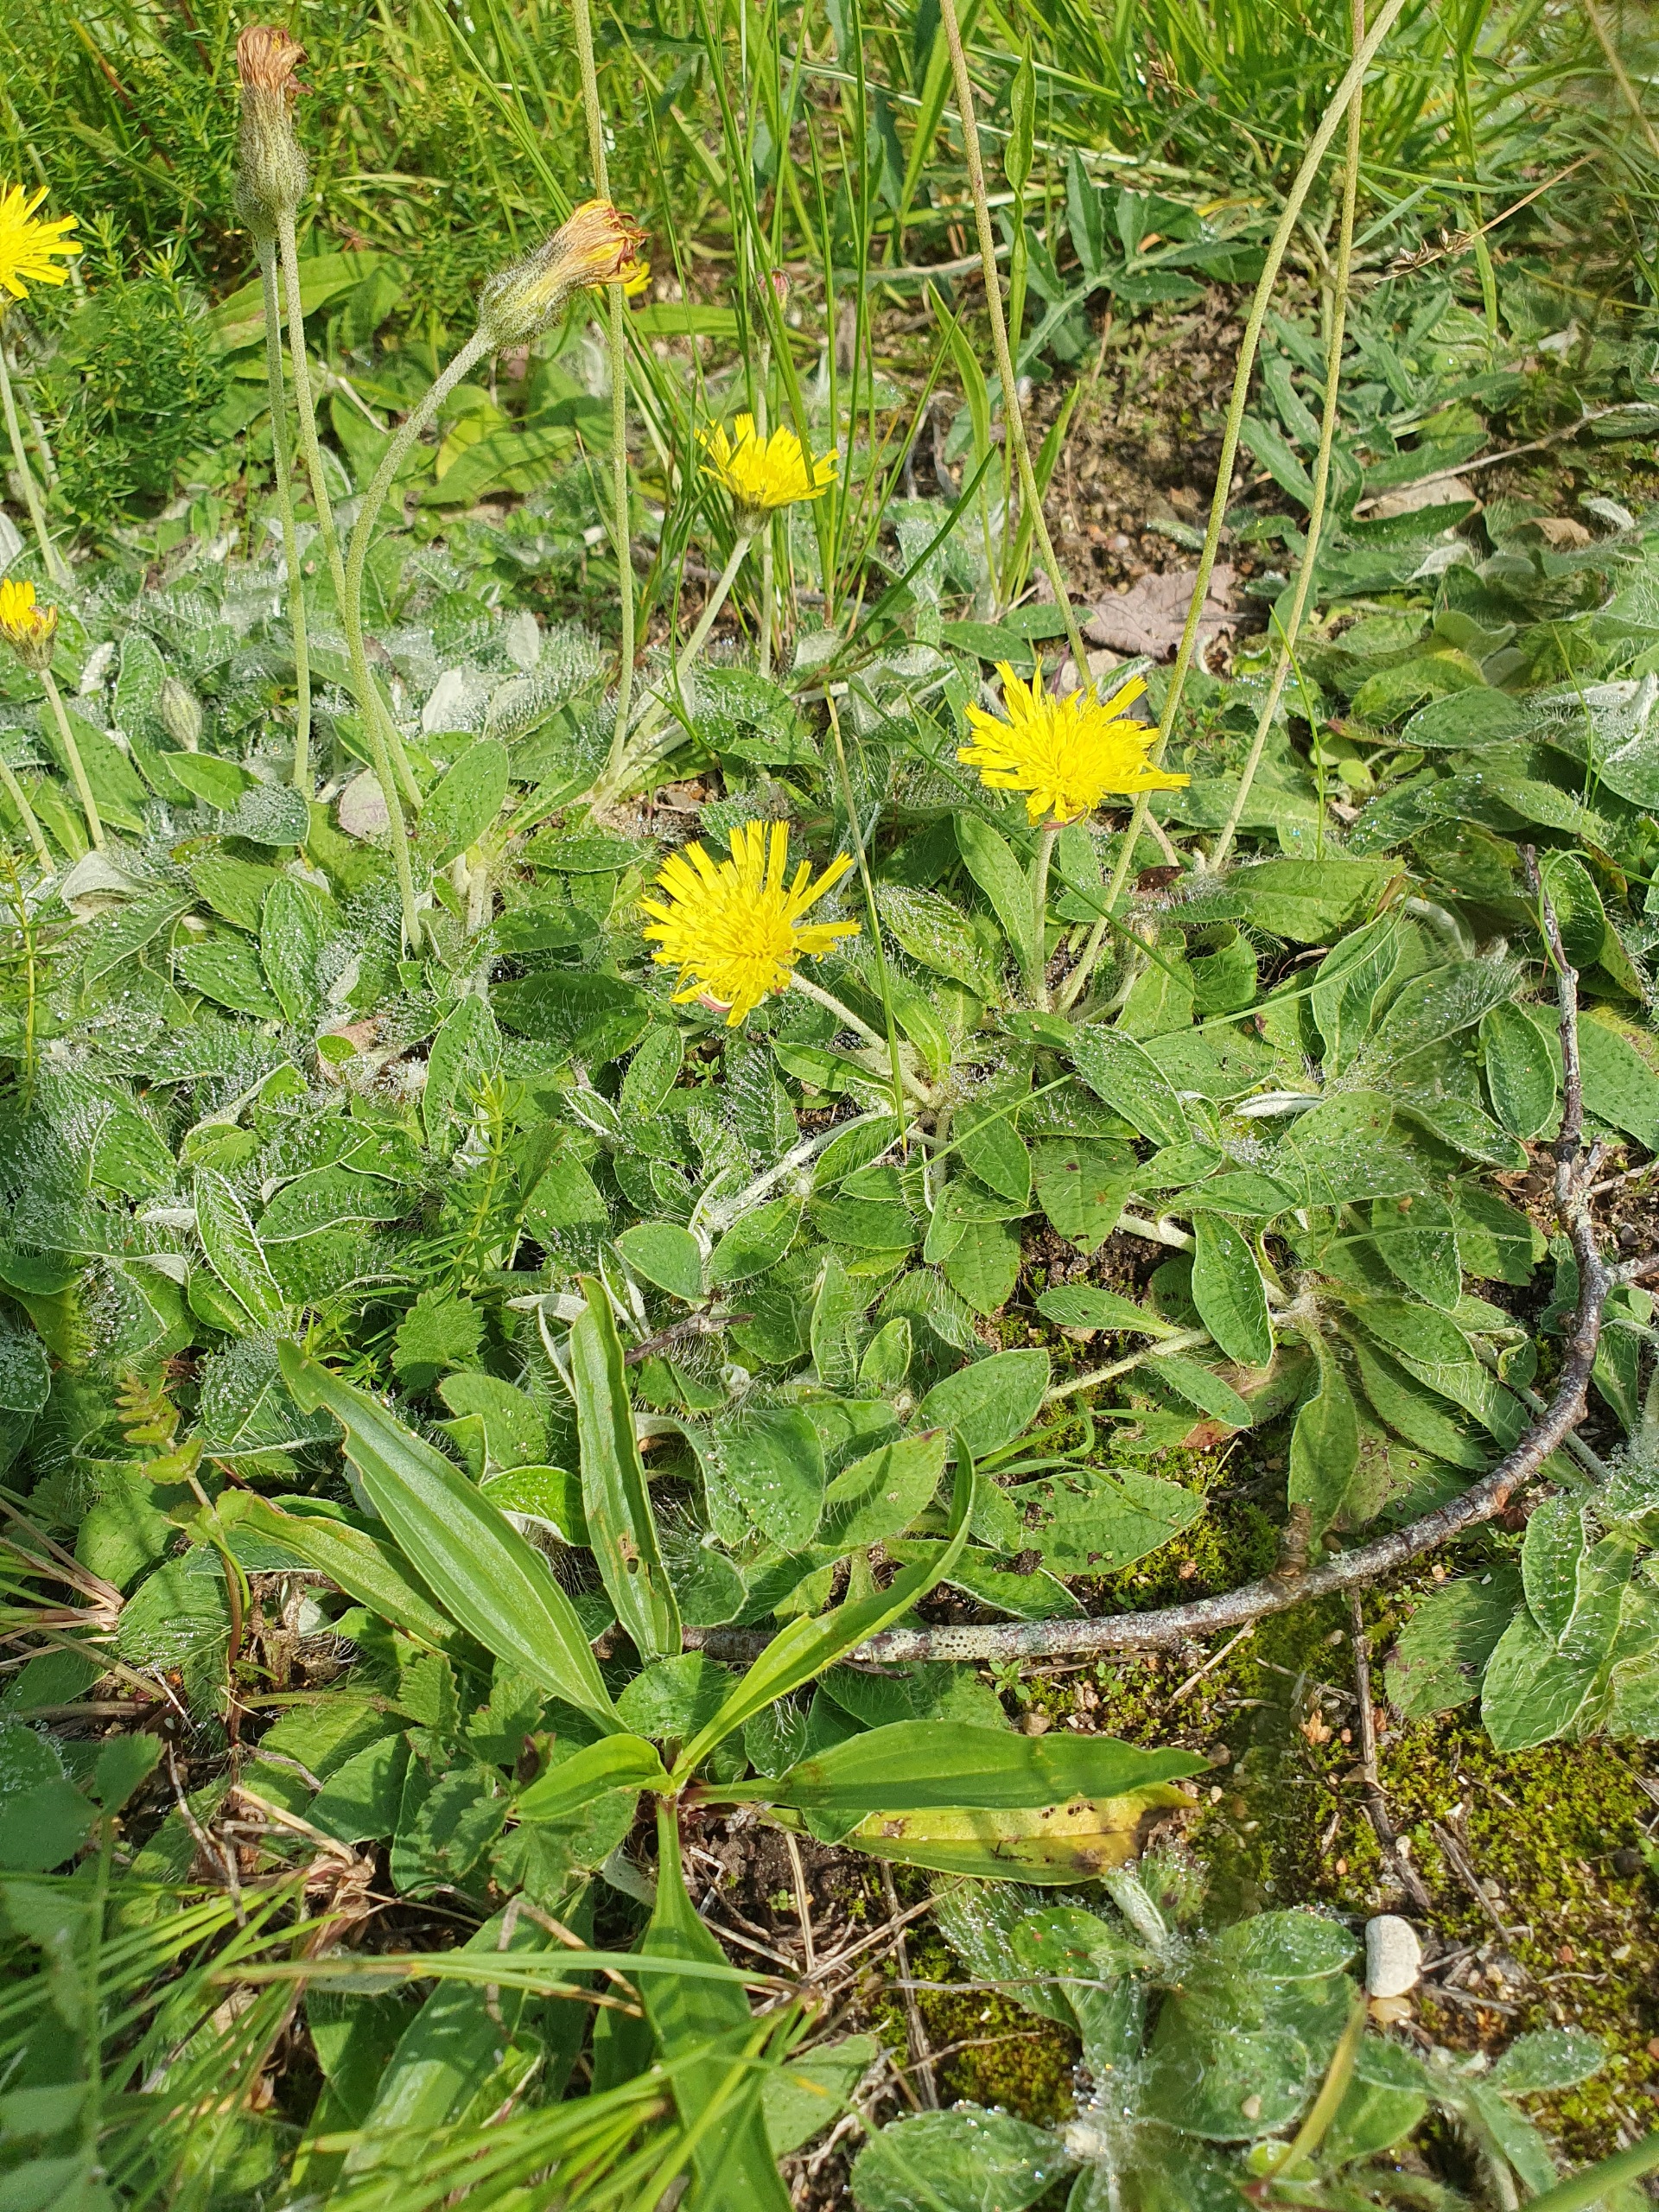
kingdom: Plantae
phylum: Tracheophyta
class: Magnoliopsida
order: Asterales
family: Asteraceae
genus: Pilosella
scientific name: Pilosella officinarum
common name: Håret høgeurt
